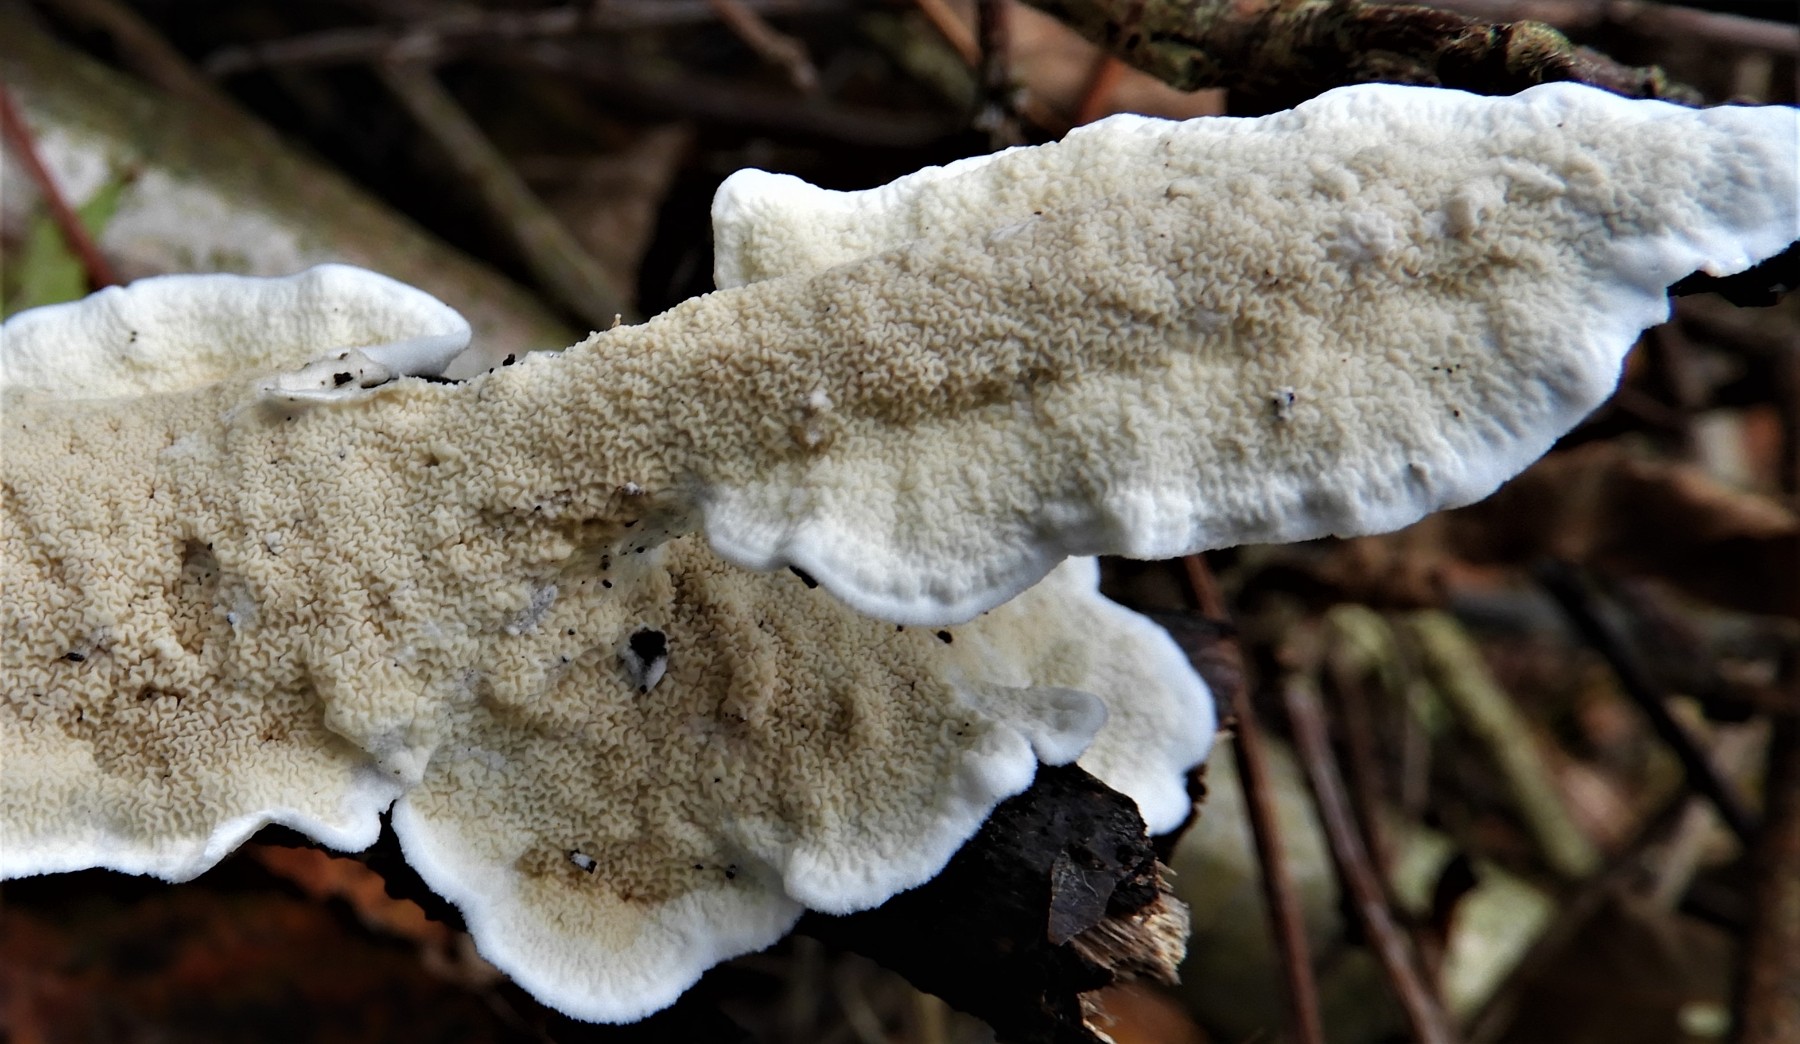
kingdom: Fungi
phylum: Basidiomycota
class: Agaricomycetes
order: Polyporales
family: Irpicaceae
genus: Byssomerulius
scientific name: Byssomerulius corium
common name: læder-åresvamp
